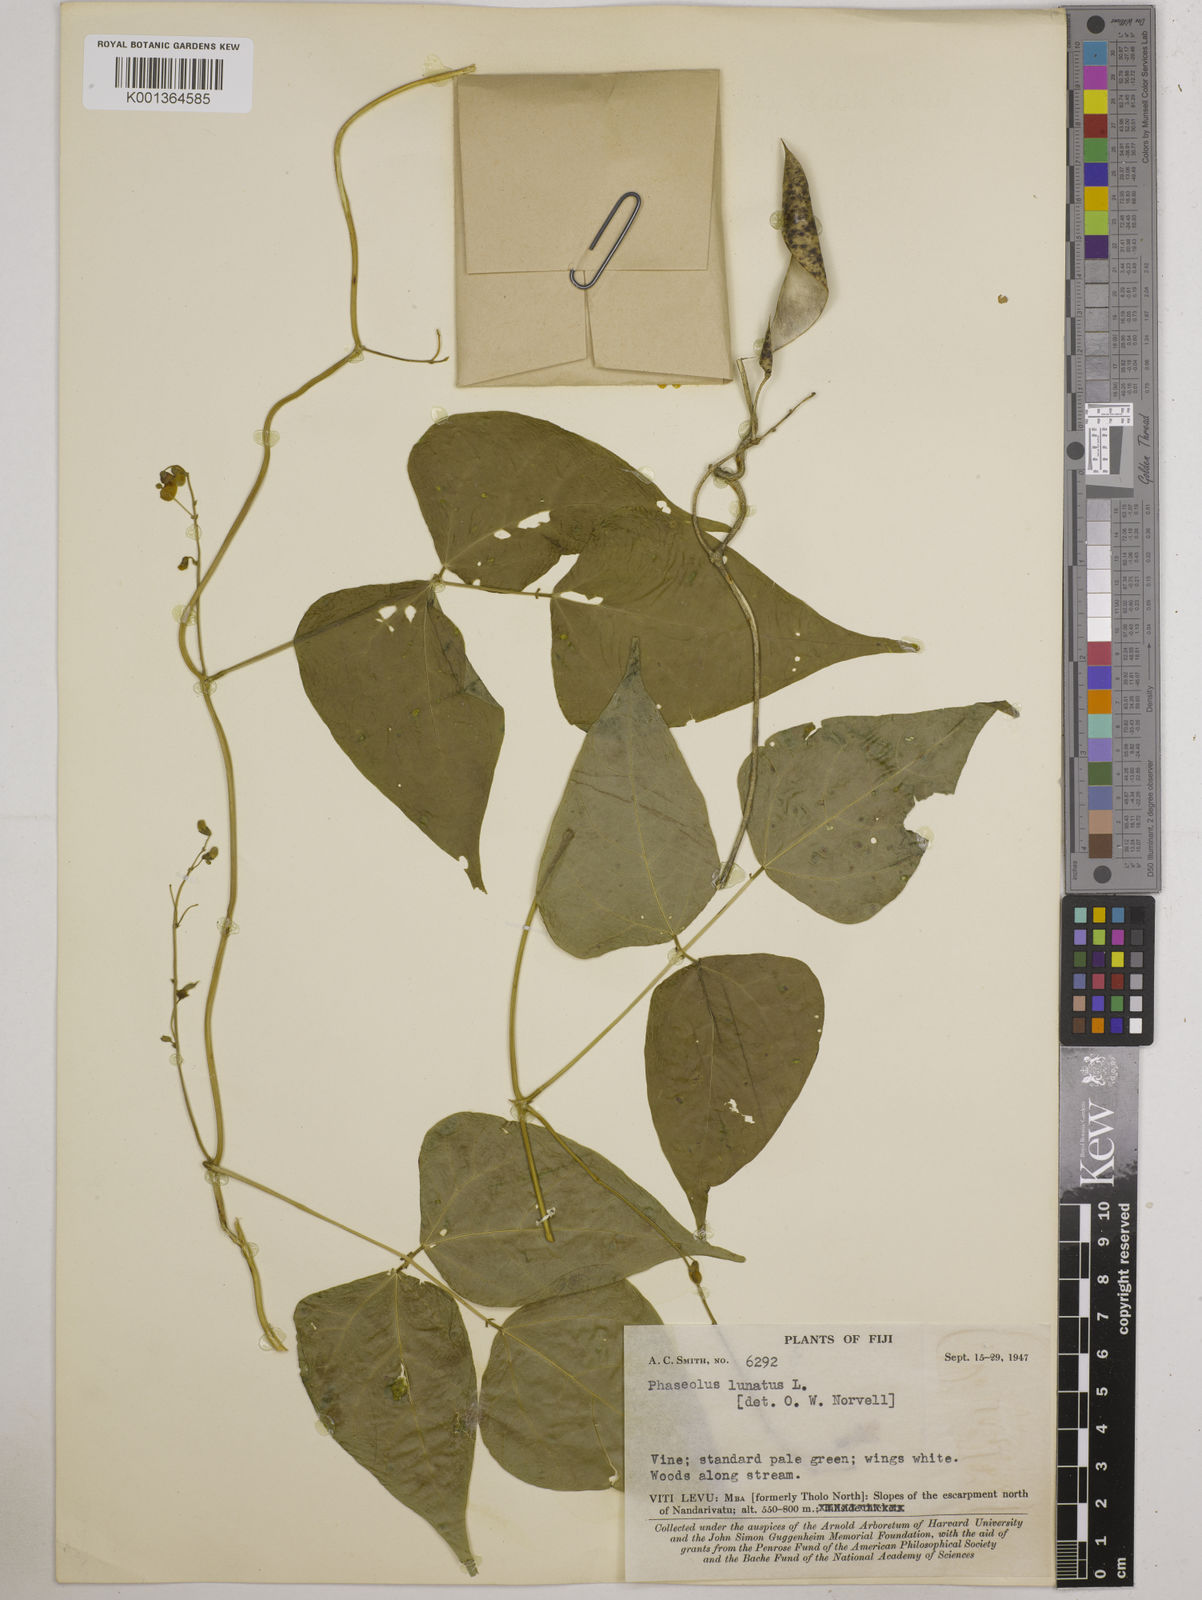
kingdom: Plantae
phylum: Tracheophyta
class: Magnoliopsida
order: Fabales
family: Fabaceae
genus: Phaseolus
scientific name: Phaseolus lunatus
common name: Sieva bean
